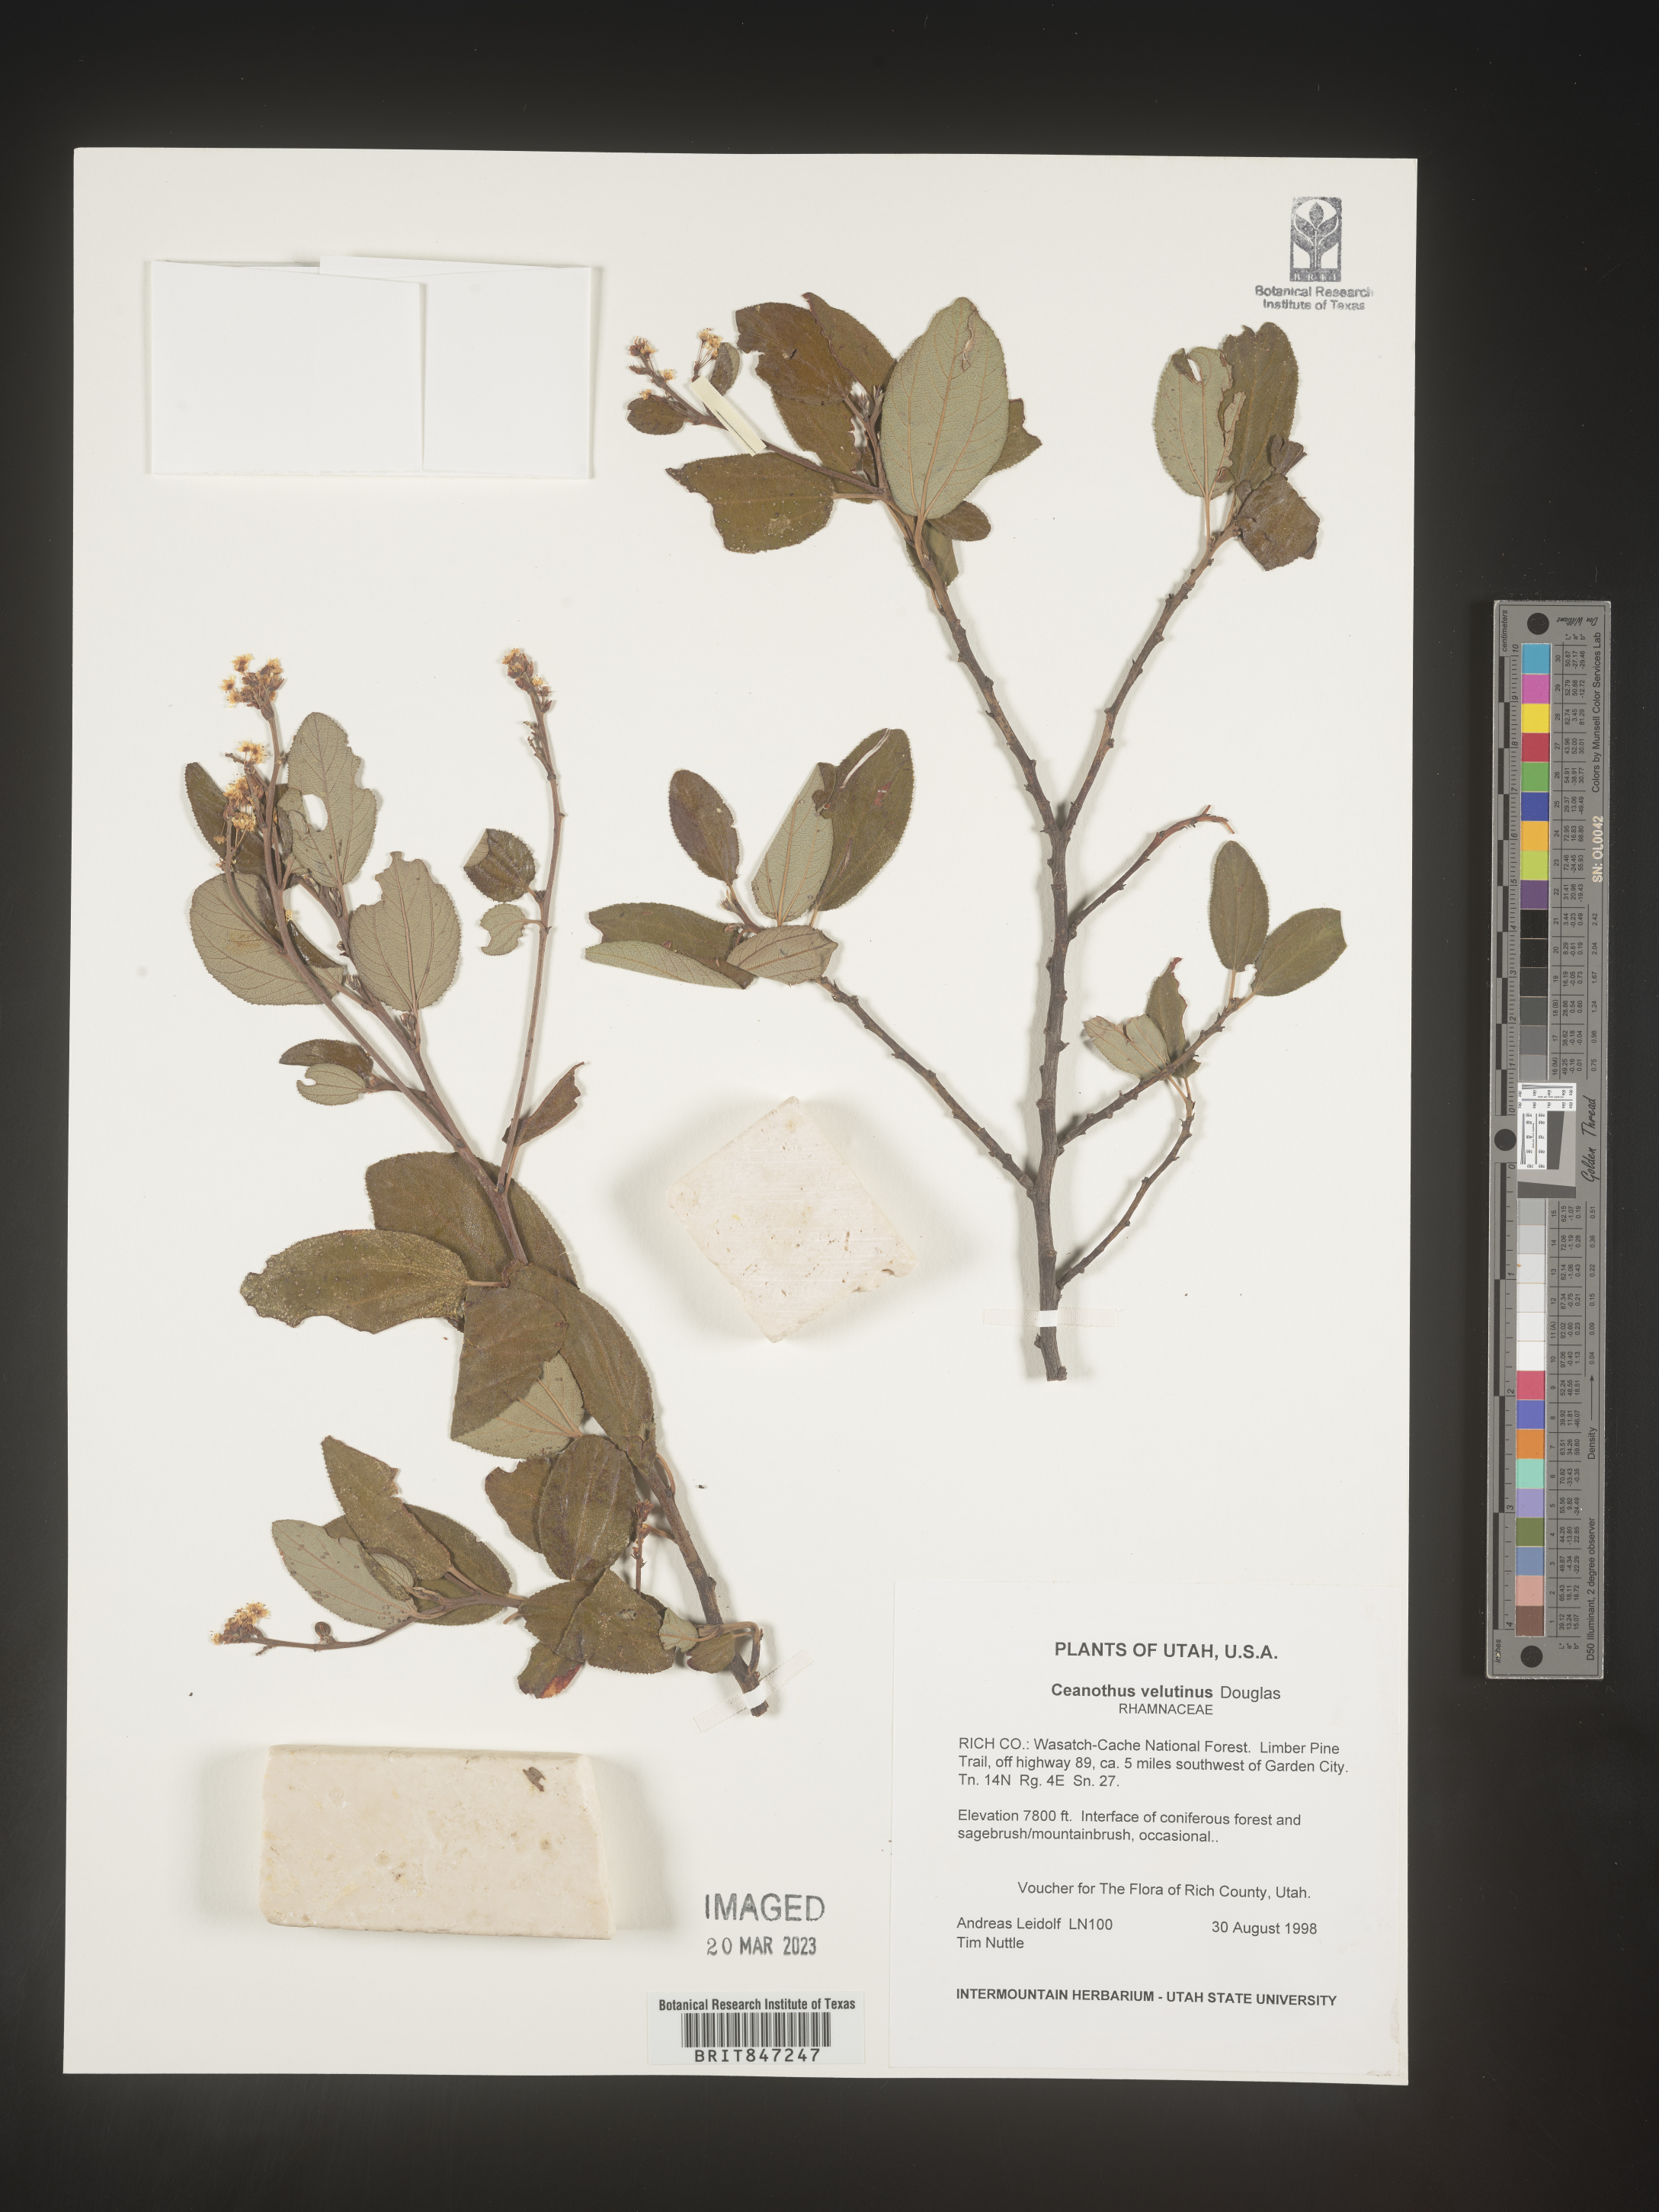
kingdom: Plantae
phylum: Tracheophyta
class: Magnoliopsida
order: Rosales
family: Rhamnaceae
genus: Ceanothus
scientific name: Ceanothus velutinus
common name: Snowbrush
